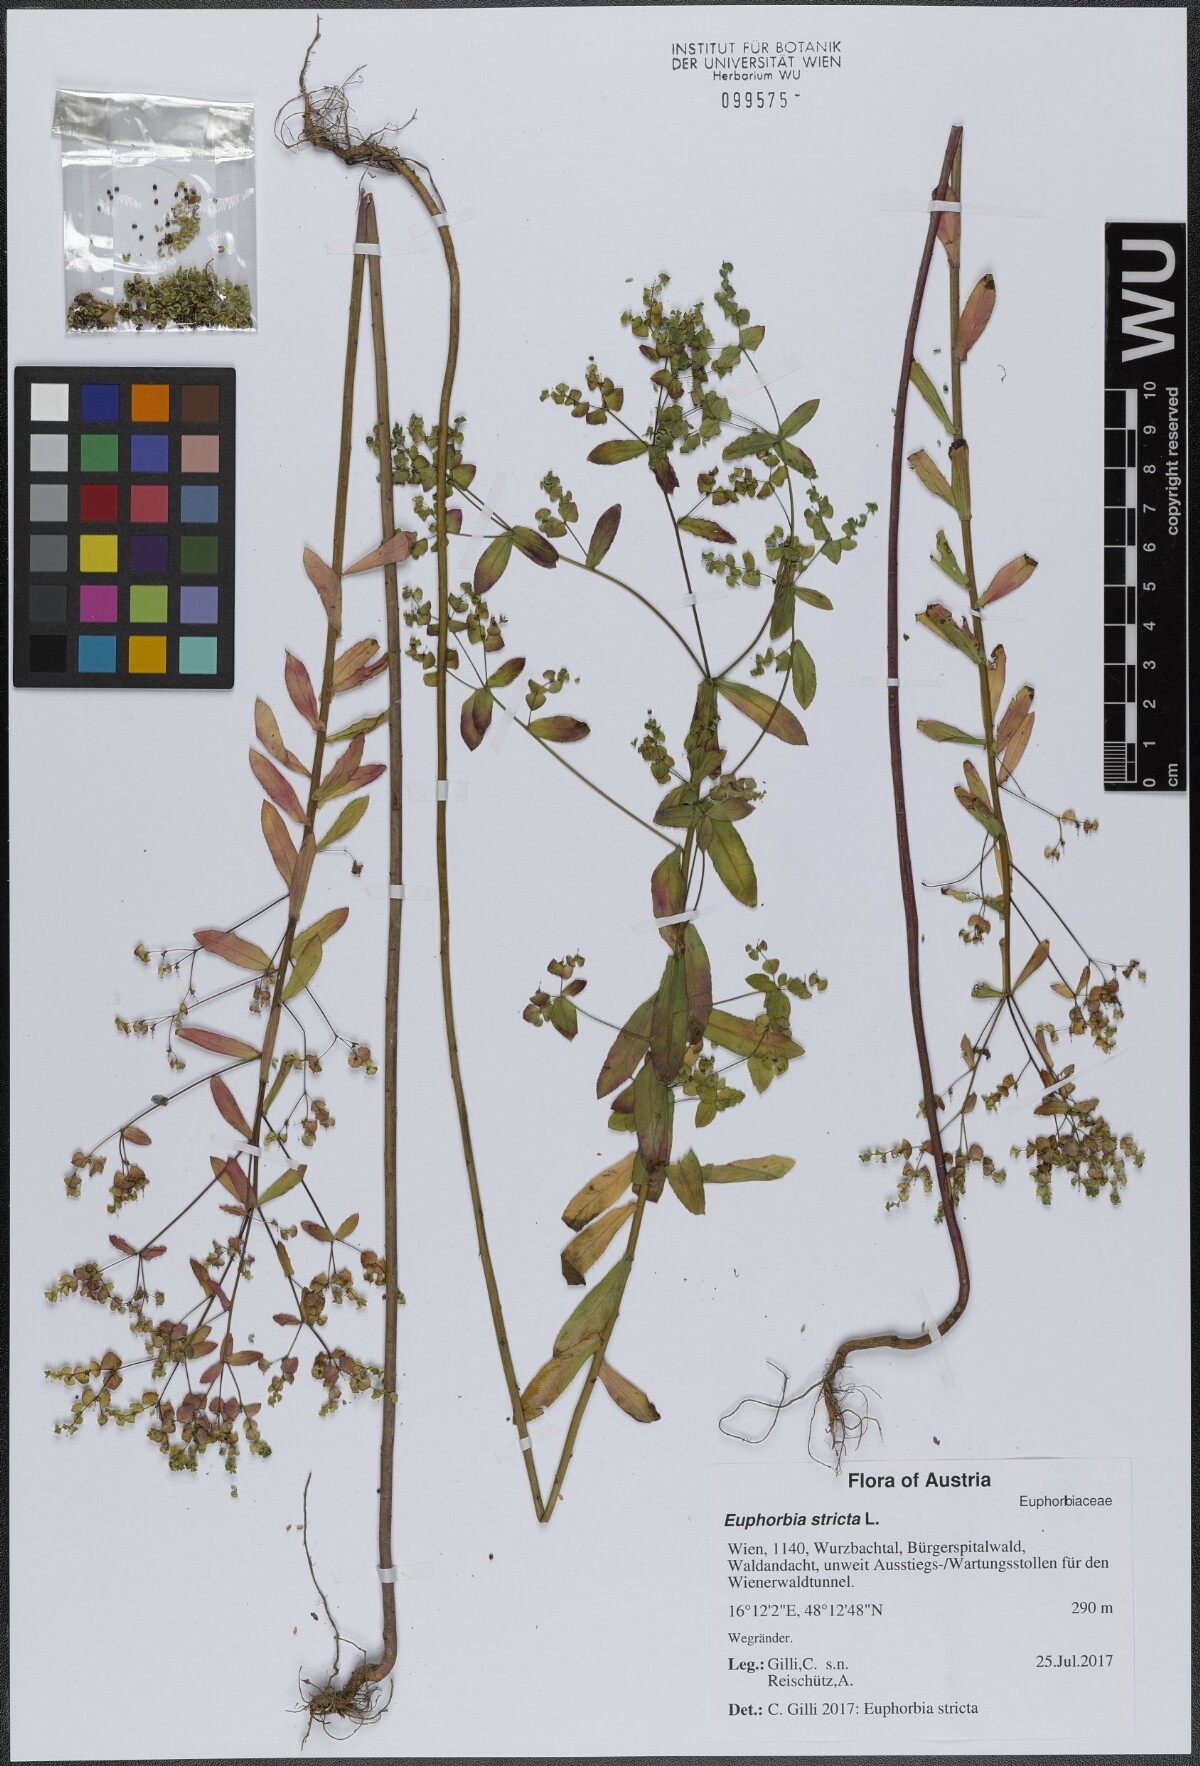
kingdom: Plantae
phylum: Tracheophyta
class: Magnoliopsida
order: Malpighiales
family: Euphorbiaceae
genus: Euphorbia
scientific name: Euphorbia stricta
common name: Upright spurge
